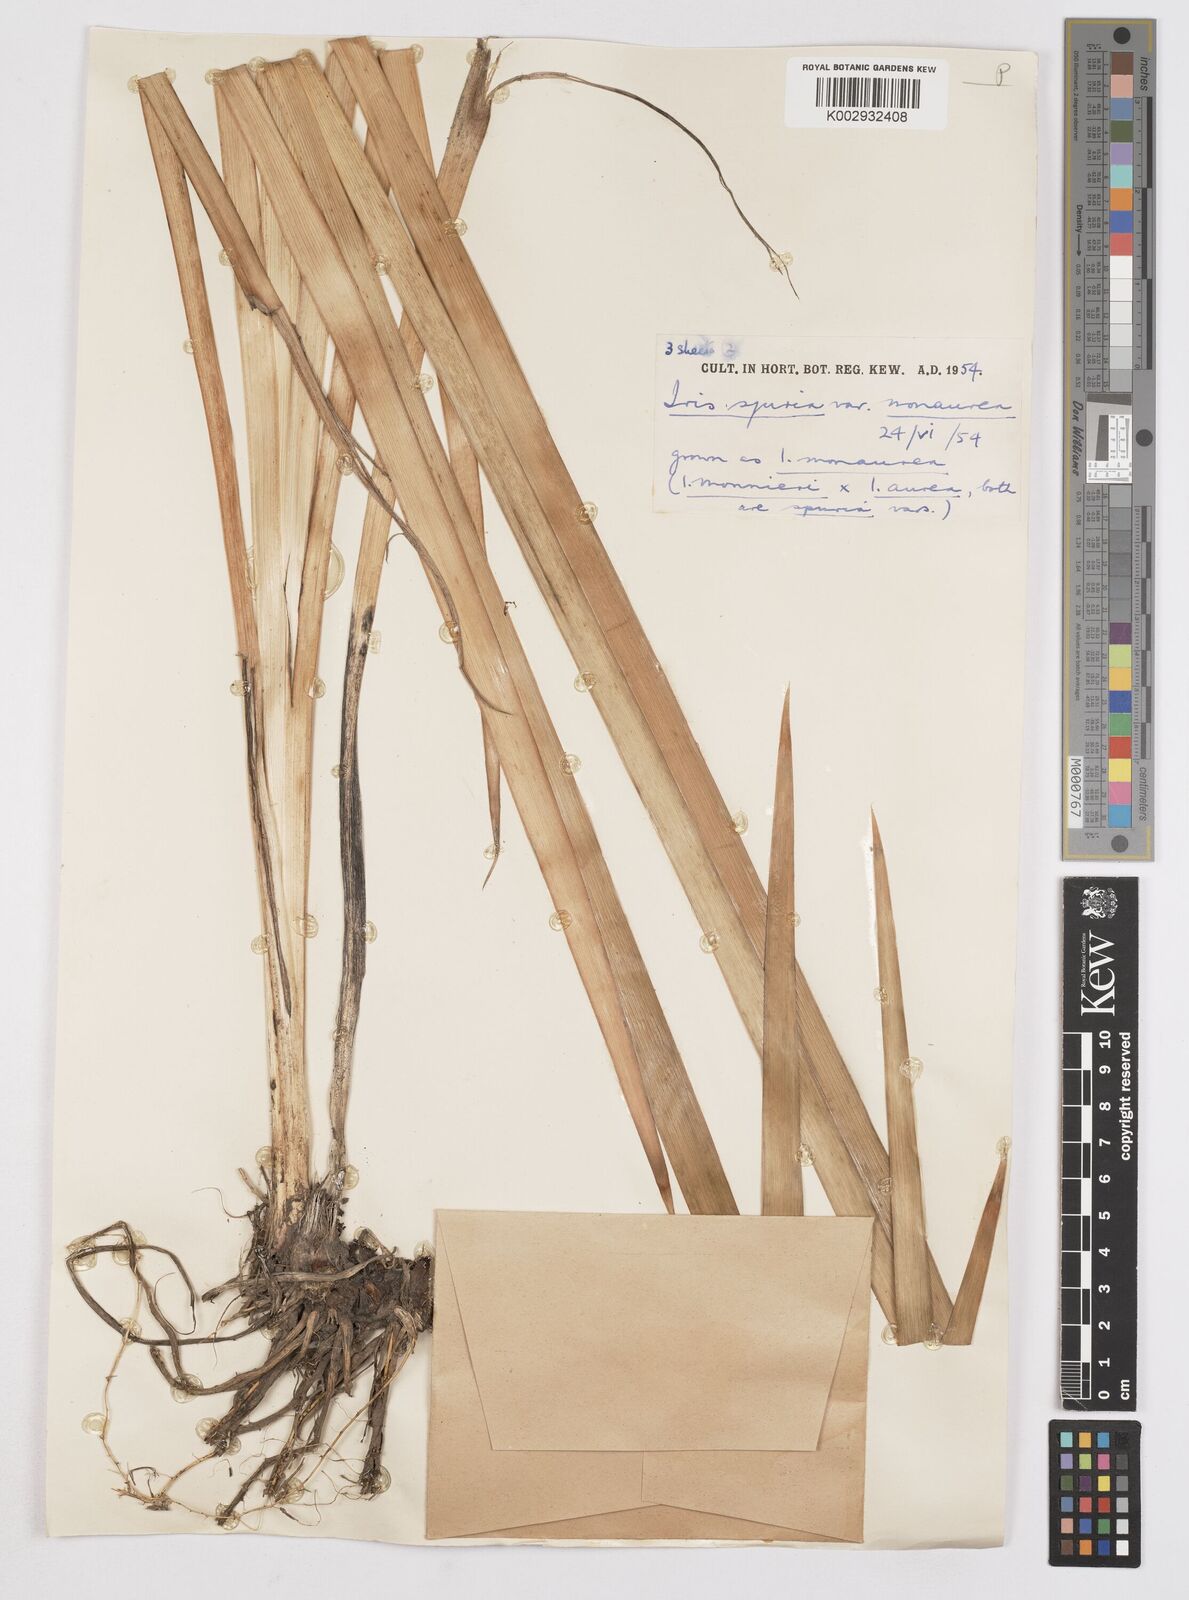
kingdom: Plantae
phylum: Tracheophyta
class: Liliopsida
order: Asparagales
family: Iridaceae
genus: Iris
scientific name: Iris spuria
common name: Blue iris
